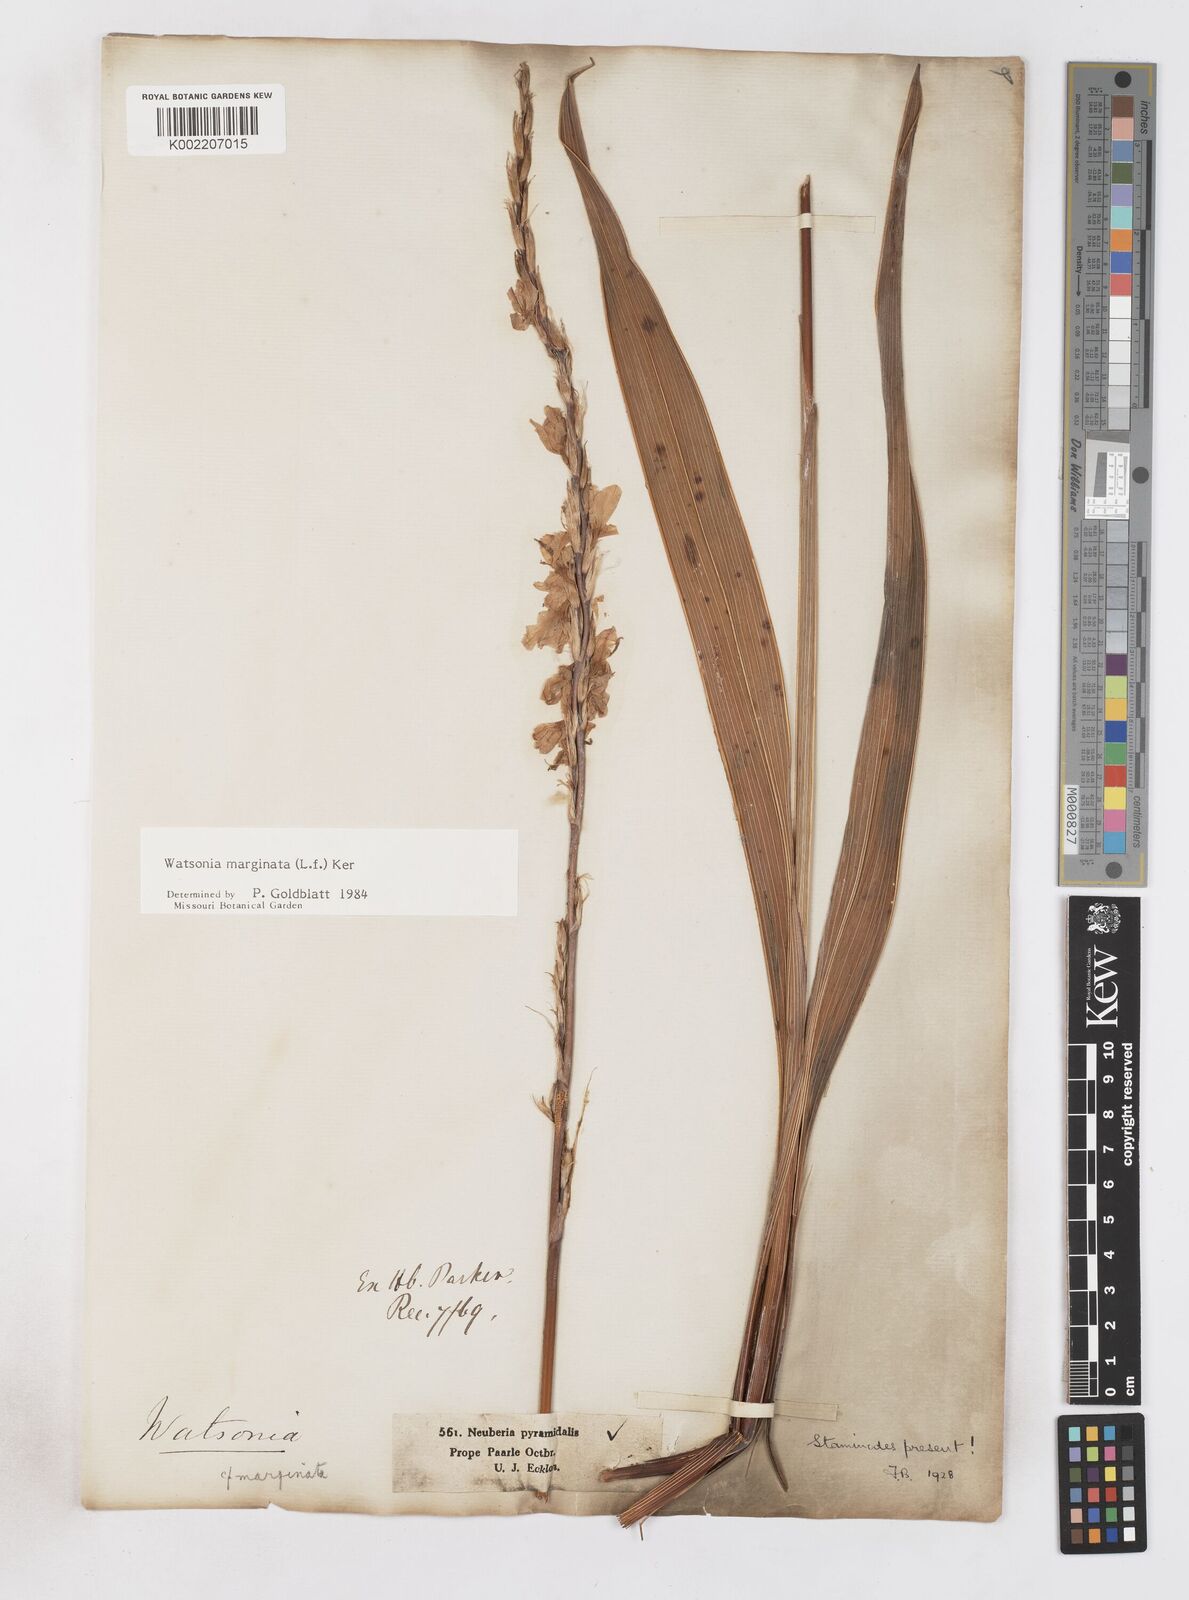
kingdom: Plantae
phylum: Tracheophyta
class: Liliopsida
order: Asparagales
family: Iridaceae
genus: Watsonia
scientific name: Watsonia marginata
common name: Fragrant bugle-lily
